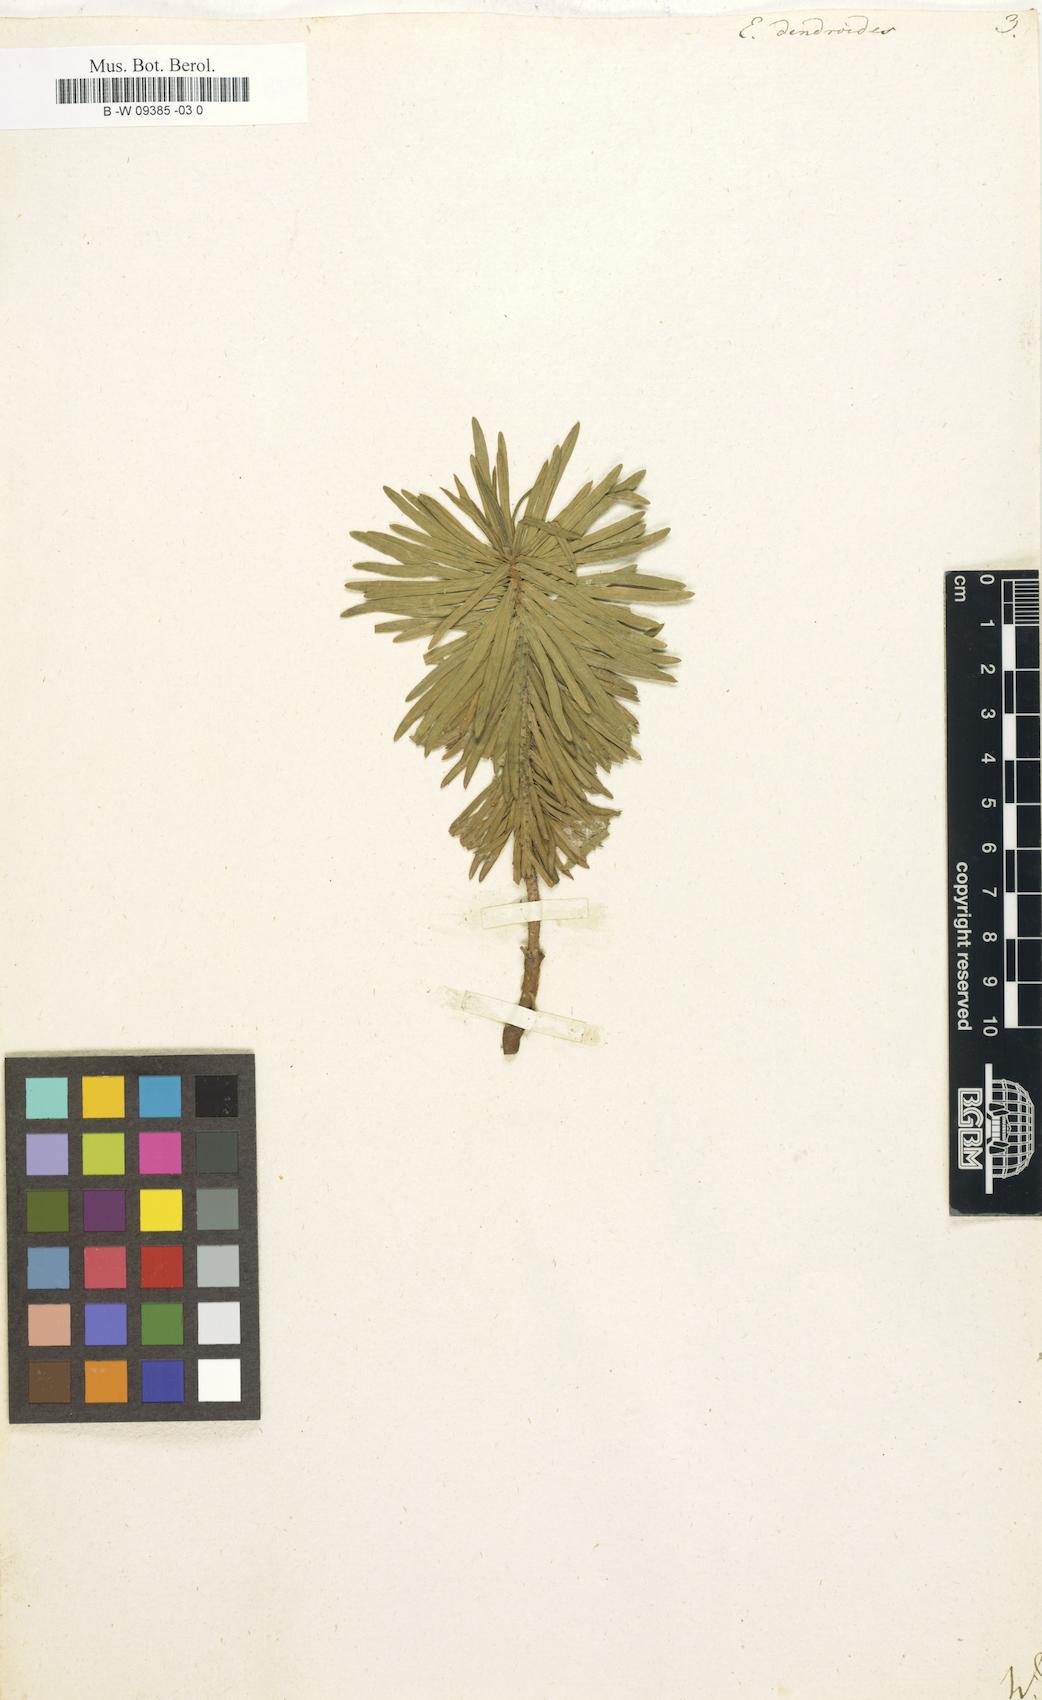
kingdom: Plantae
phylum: Tracheophyta
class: Magnoliopsida
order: Malpighiales
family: Euphorbiaceae
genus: Euphorbia
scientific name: Euphorbia dendroides
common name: Tree spurge
